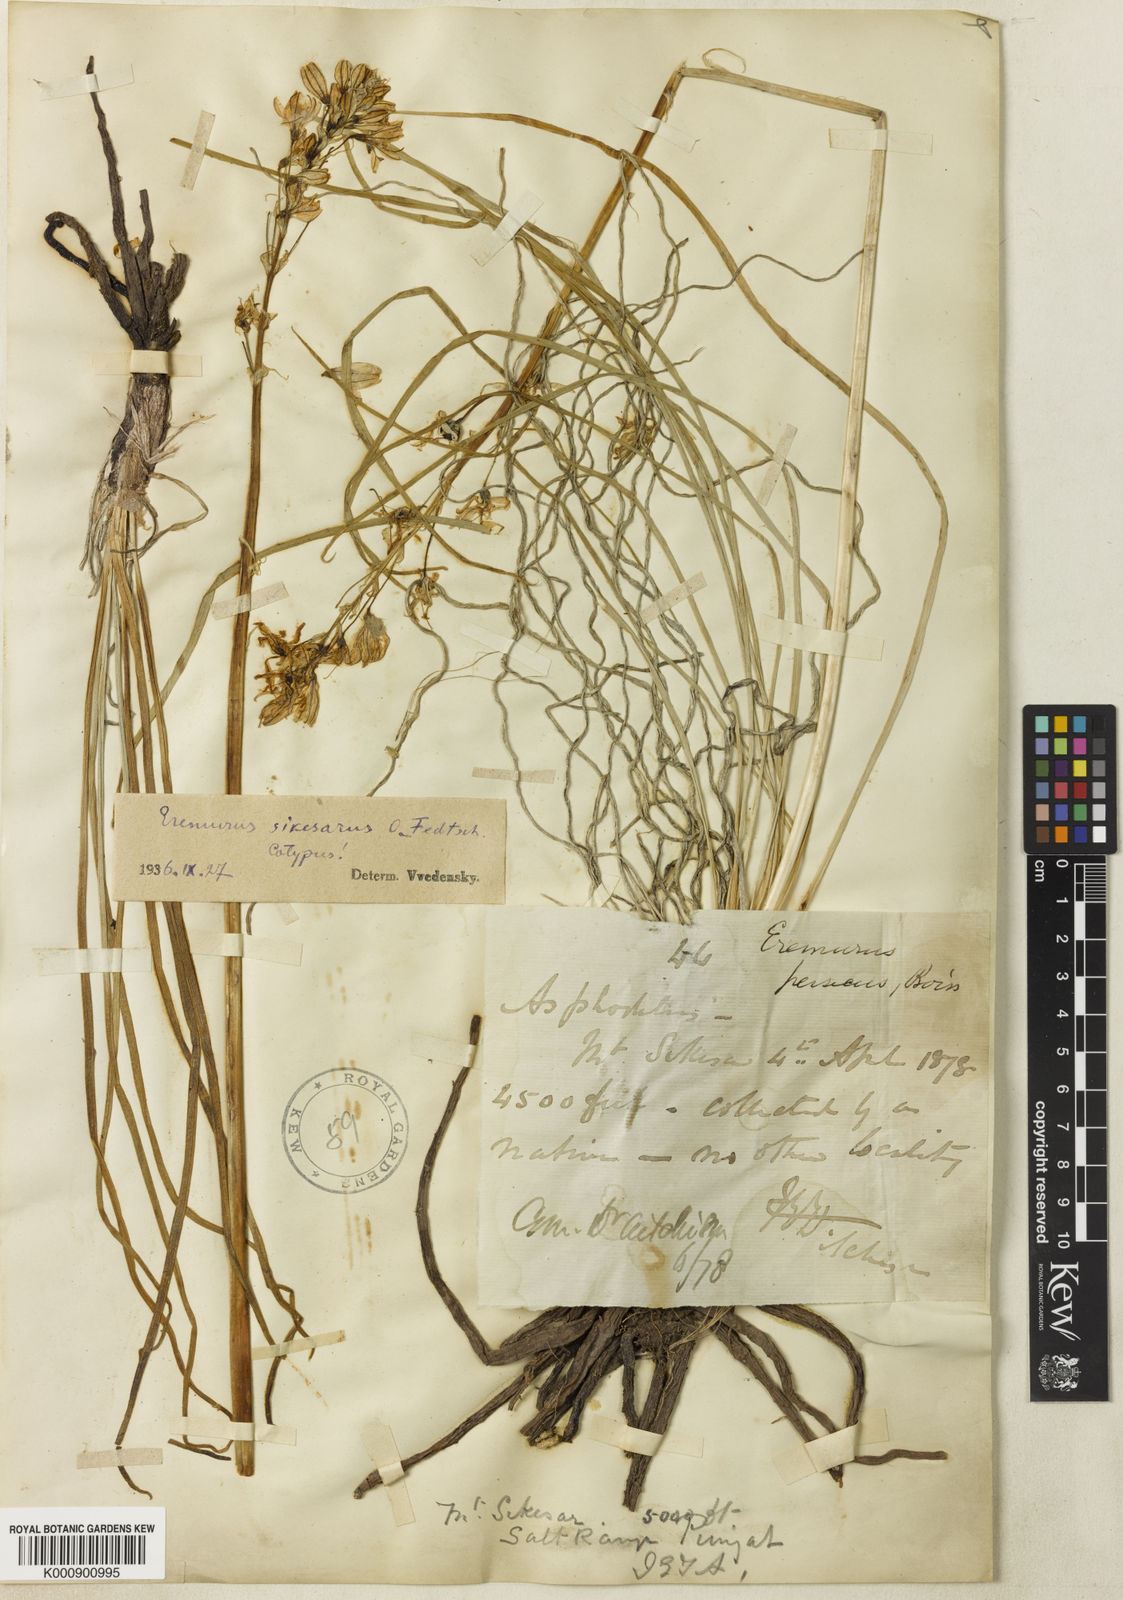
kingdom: Plantae
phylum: Tracheophyta
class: Liliopsida
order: Asparagales
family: Asphodelaceae
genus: Eremurus
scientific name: Eremurus persicus
